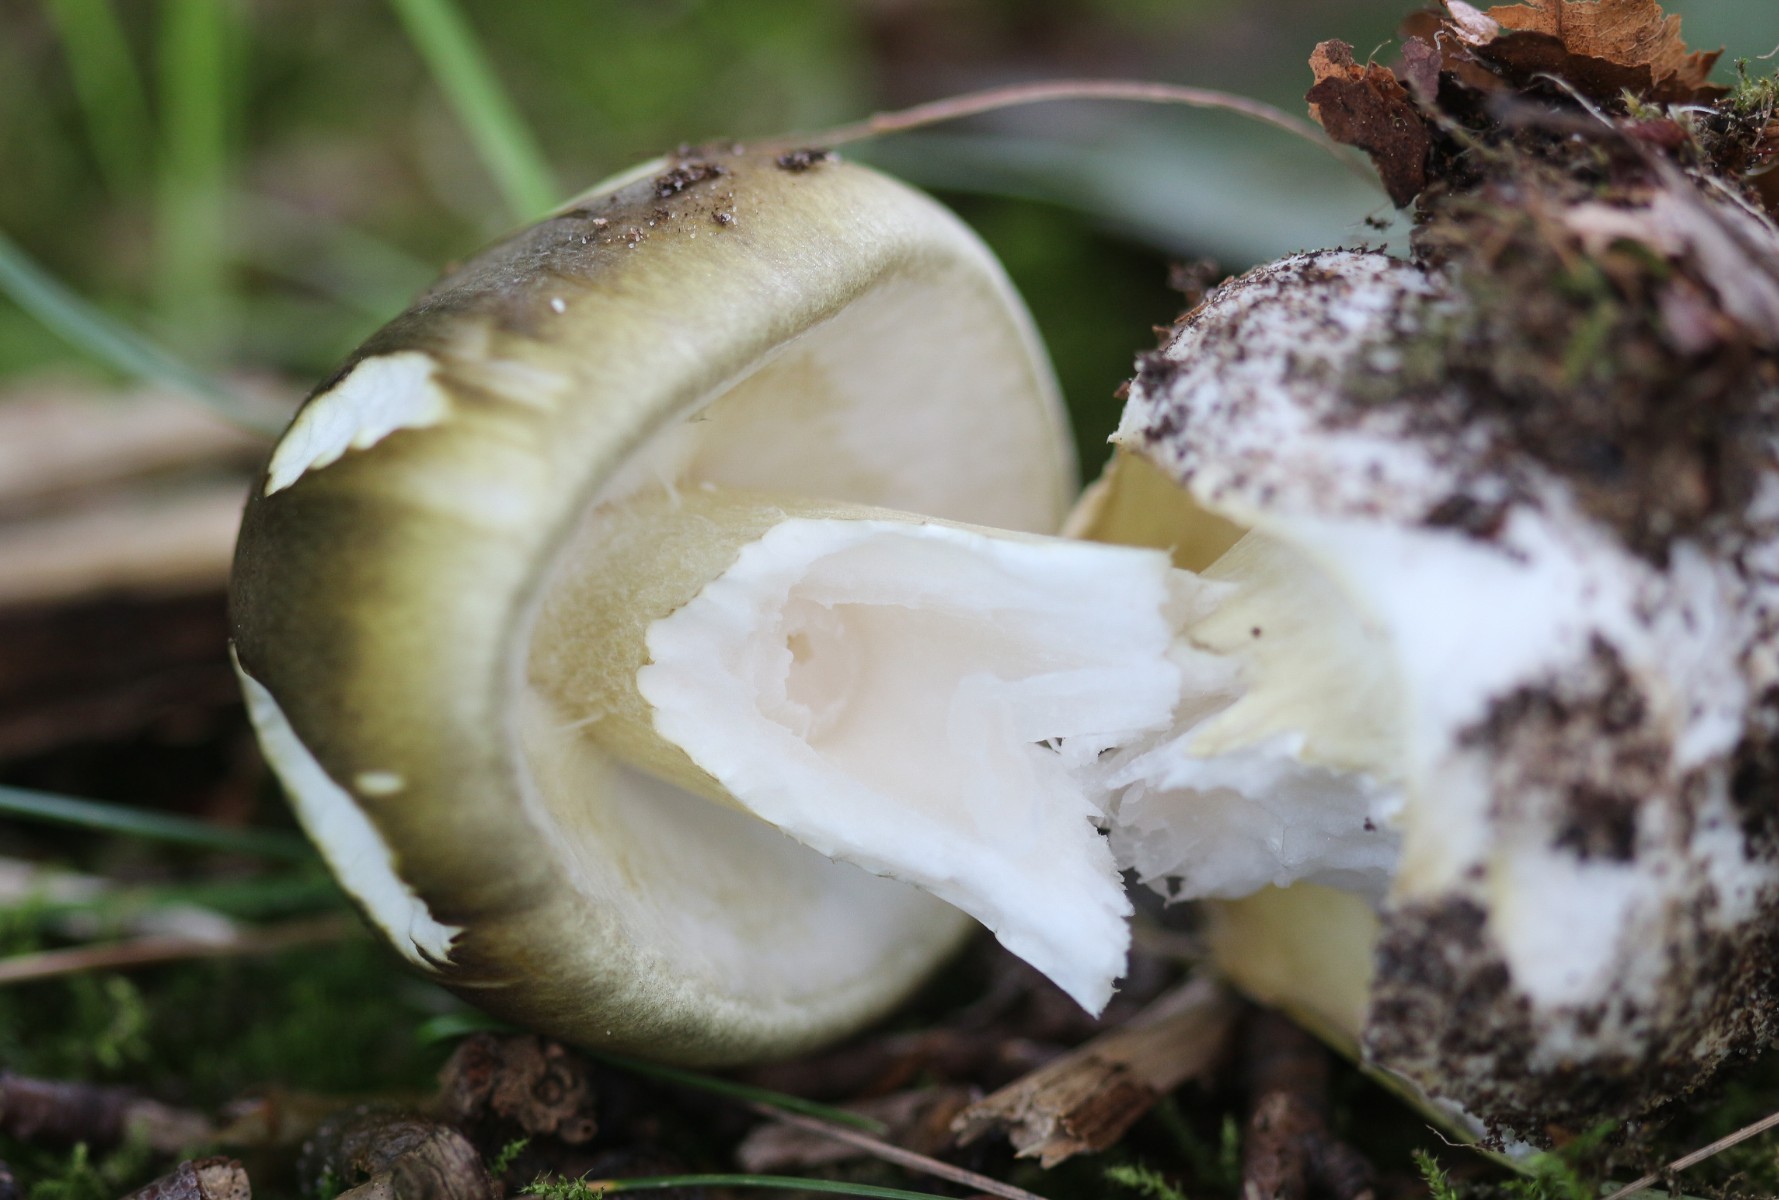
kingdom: Fungi
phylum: Basidiomycota
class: Agaricomycetes
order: Agaricales
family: Amanitaceae
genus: Amanita
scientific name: Amanita phalloides
